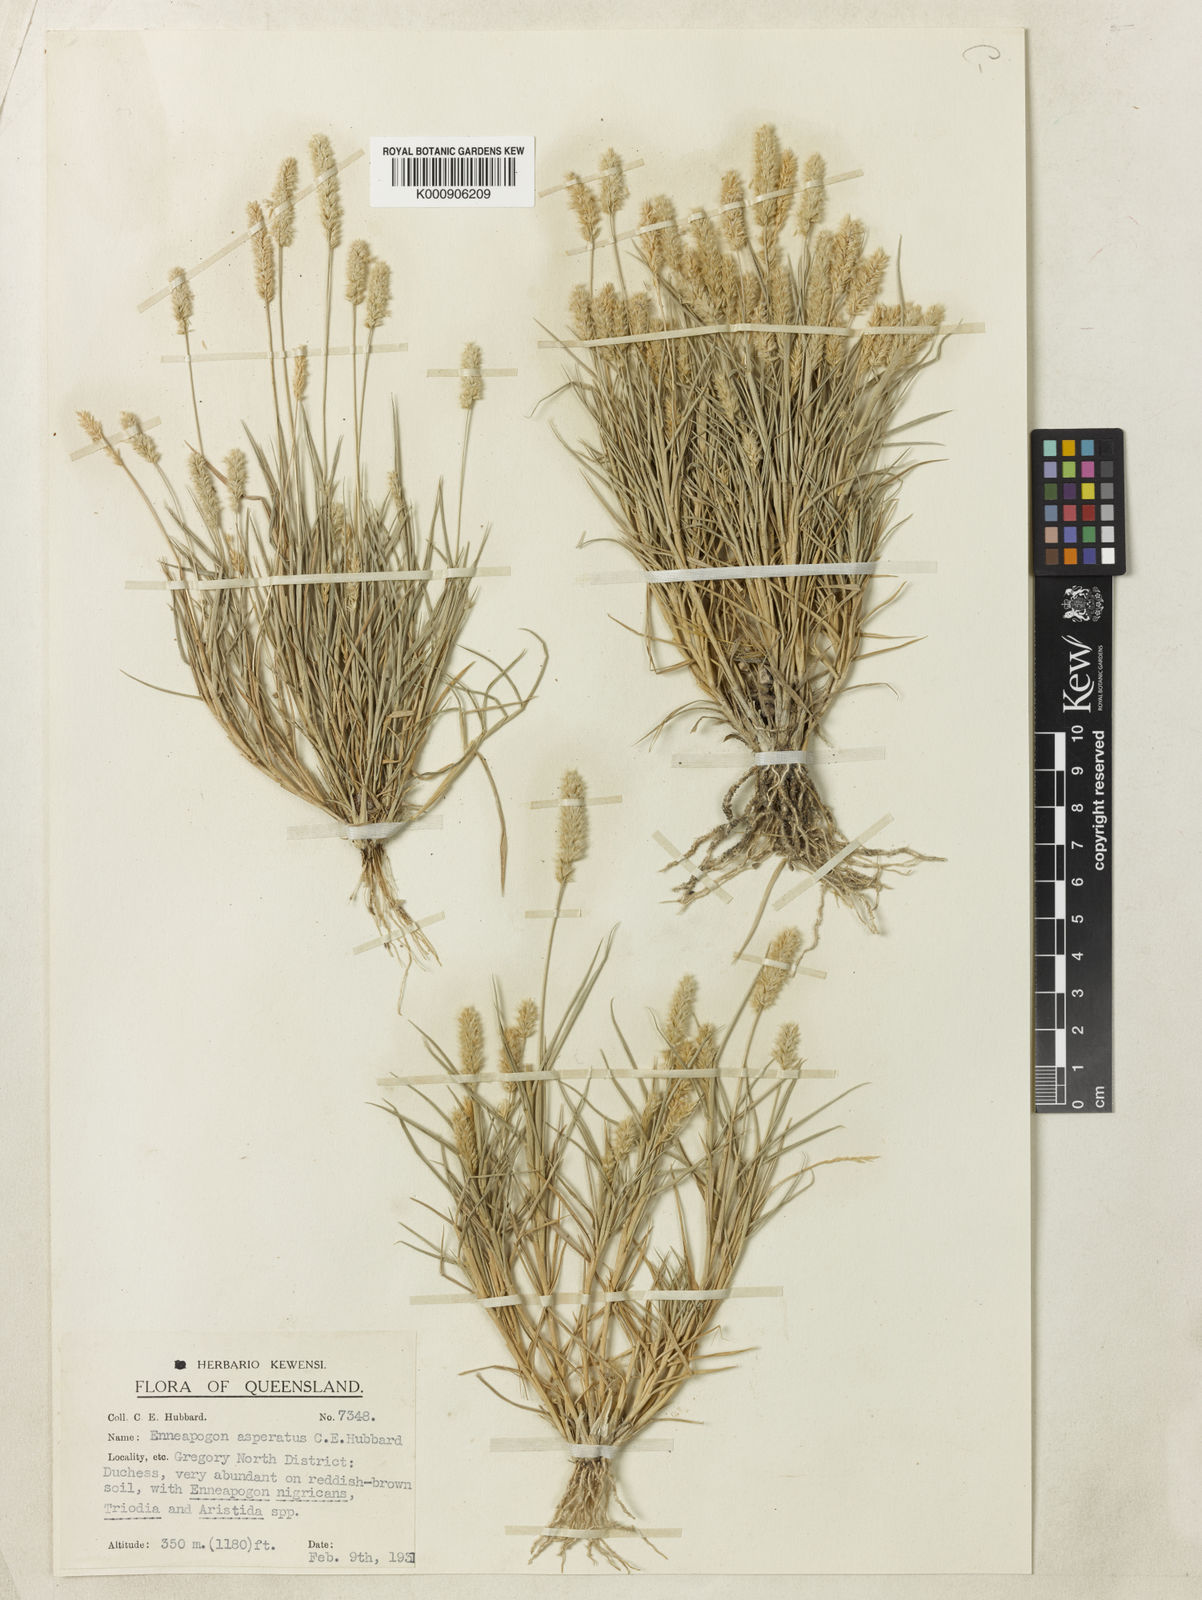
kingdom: Plantae
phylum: Tracheophyta
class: Liliopsida
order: Poales
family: Poaceae
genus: Enneapogon
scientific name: Enneapogon asperatus
